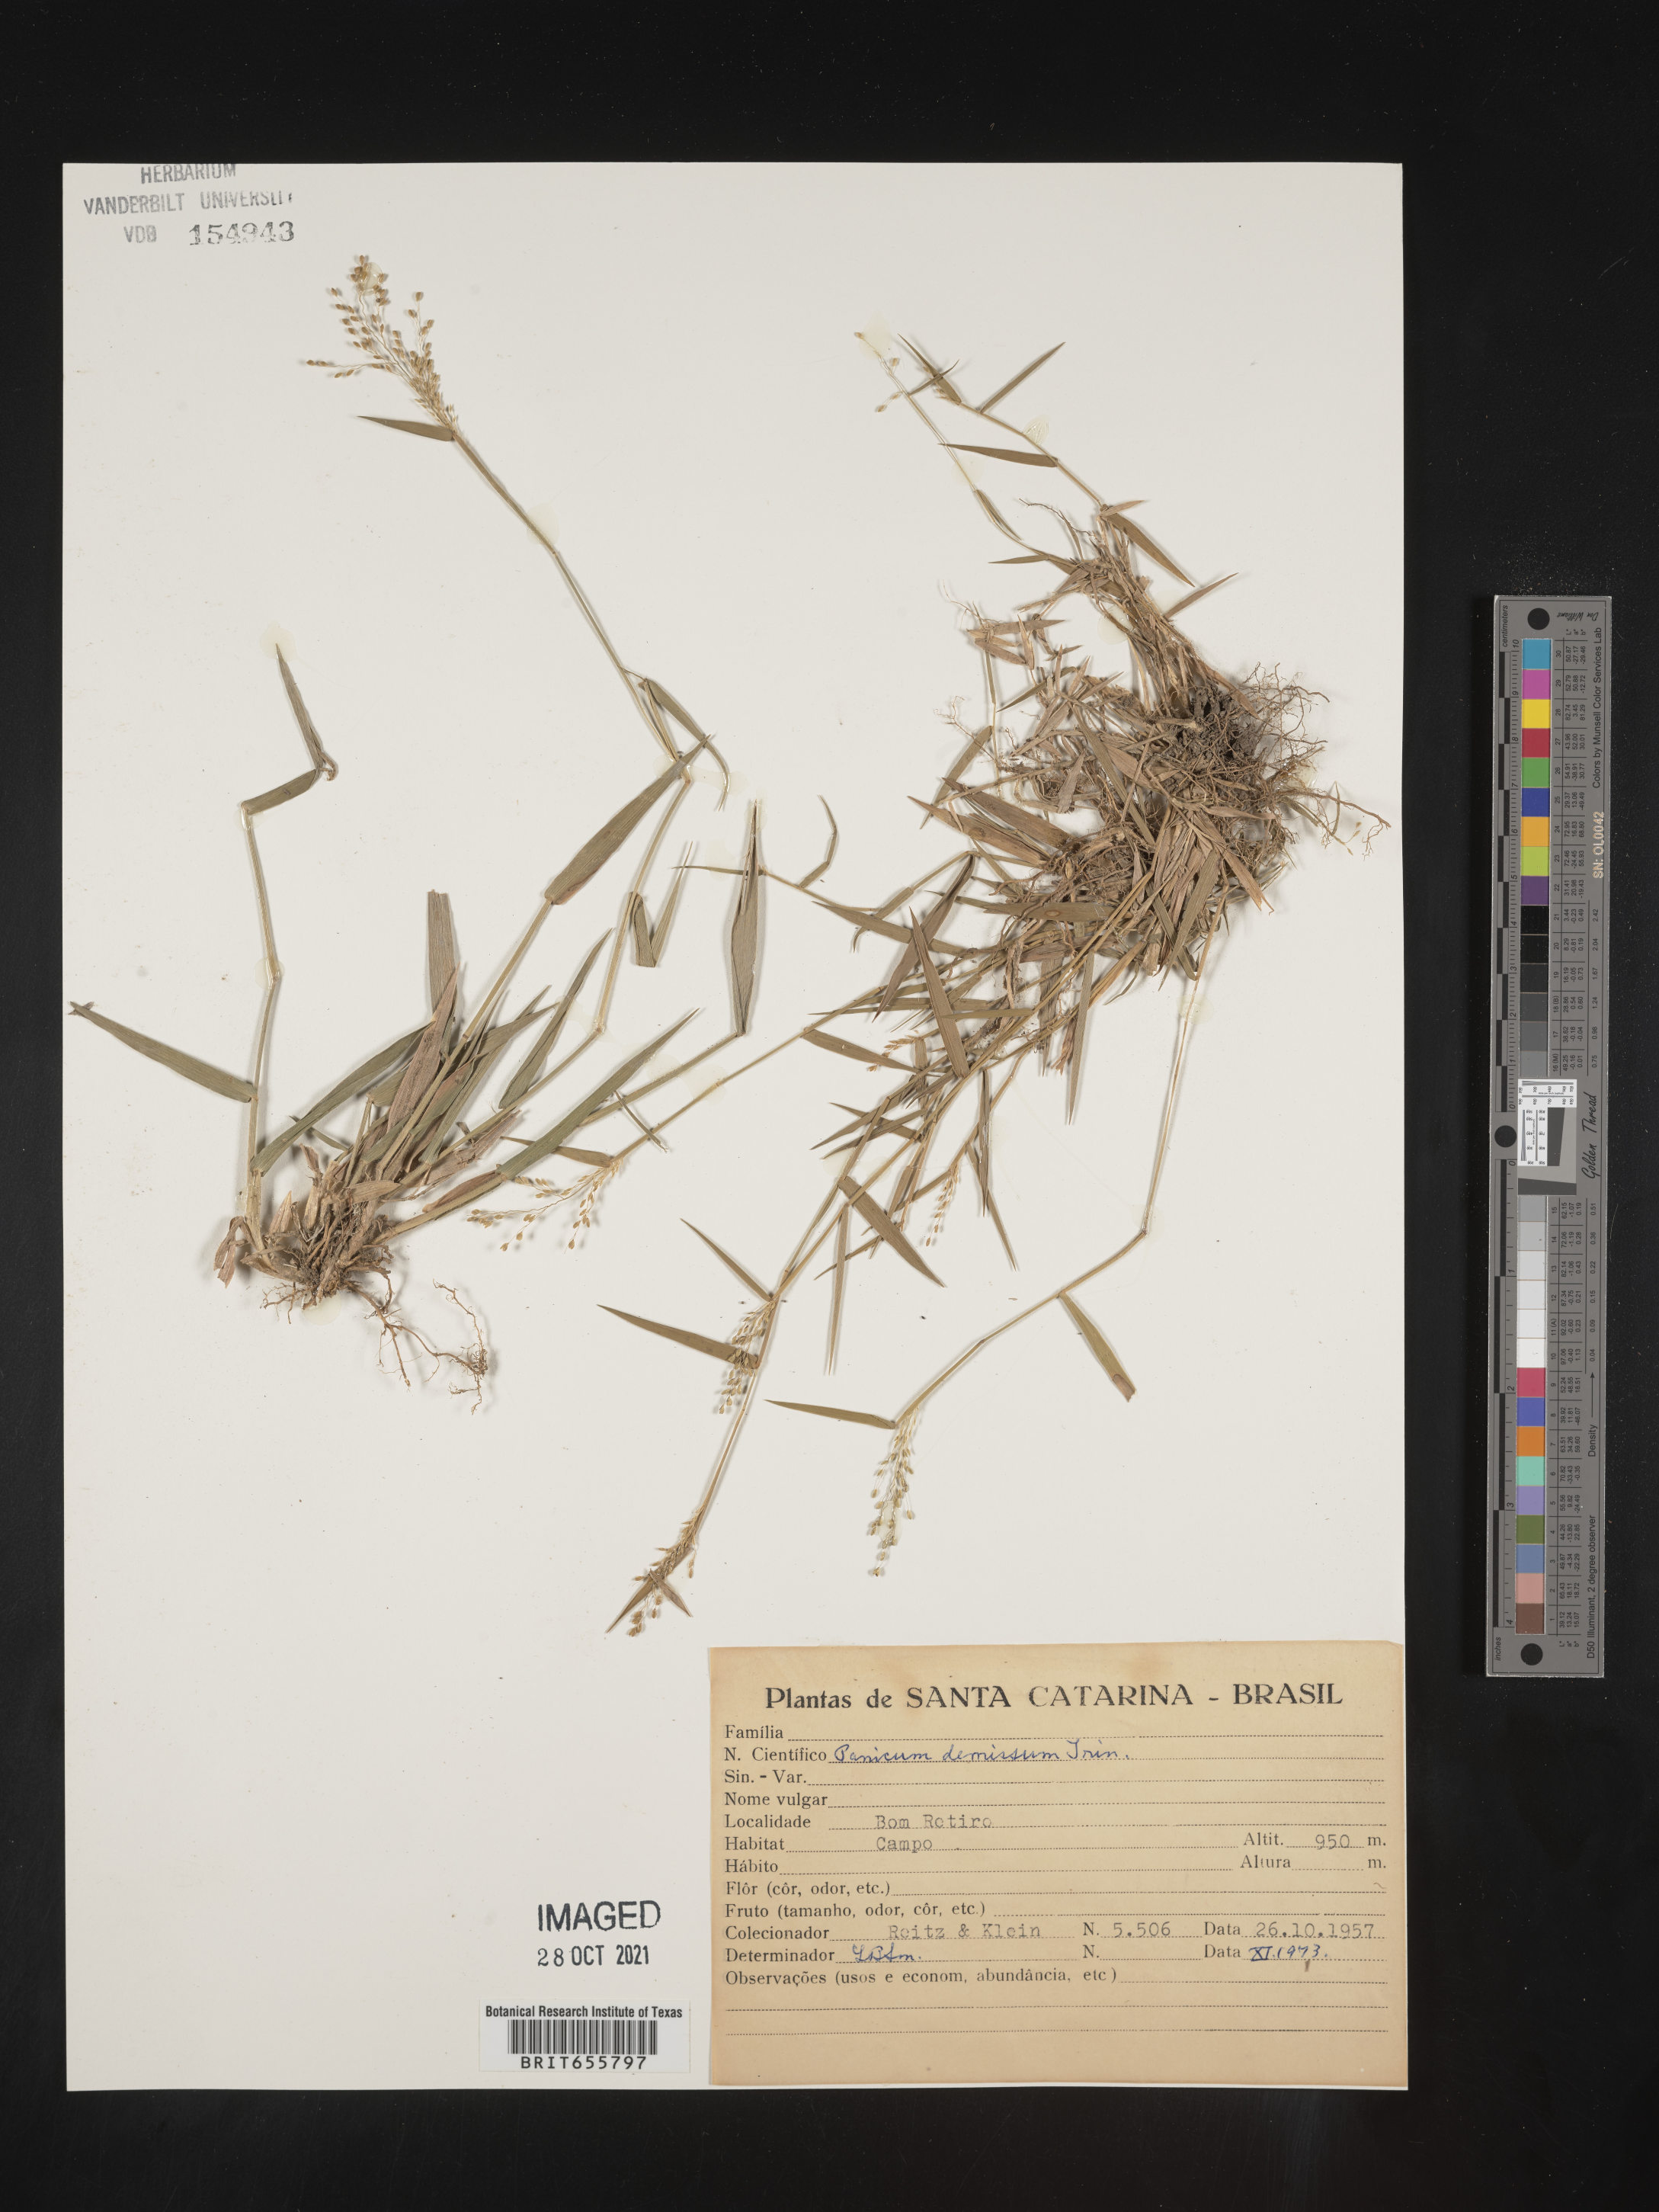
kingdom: Plantae
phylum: Tracheophyta
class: Liliopsida
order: Poales
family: Poaceae
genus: Panicum
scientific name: Panicum
